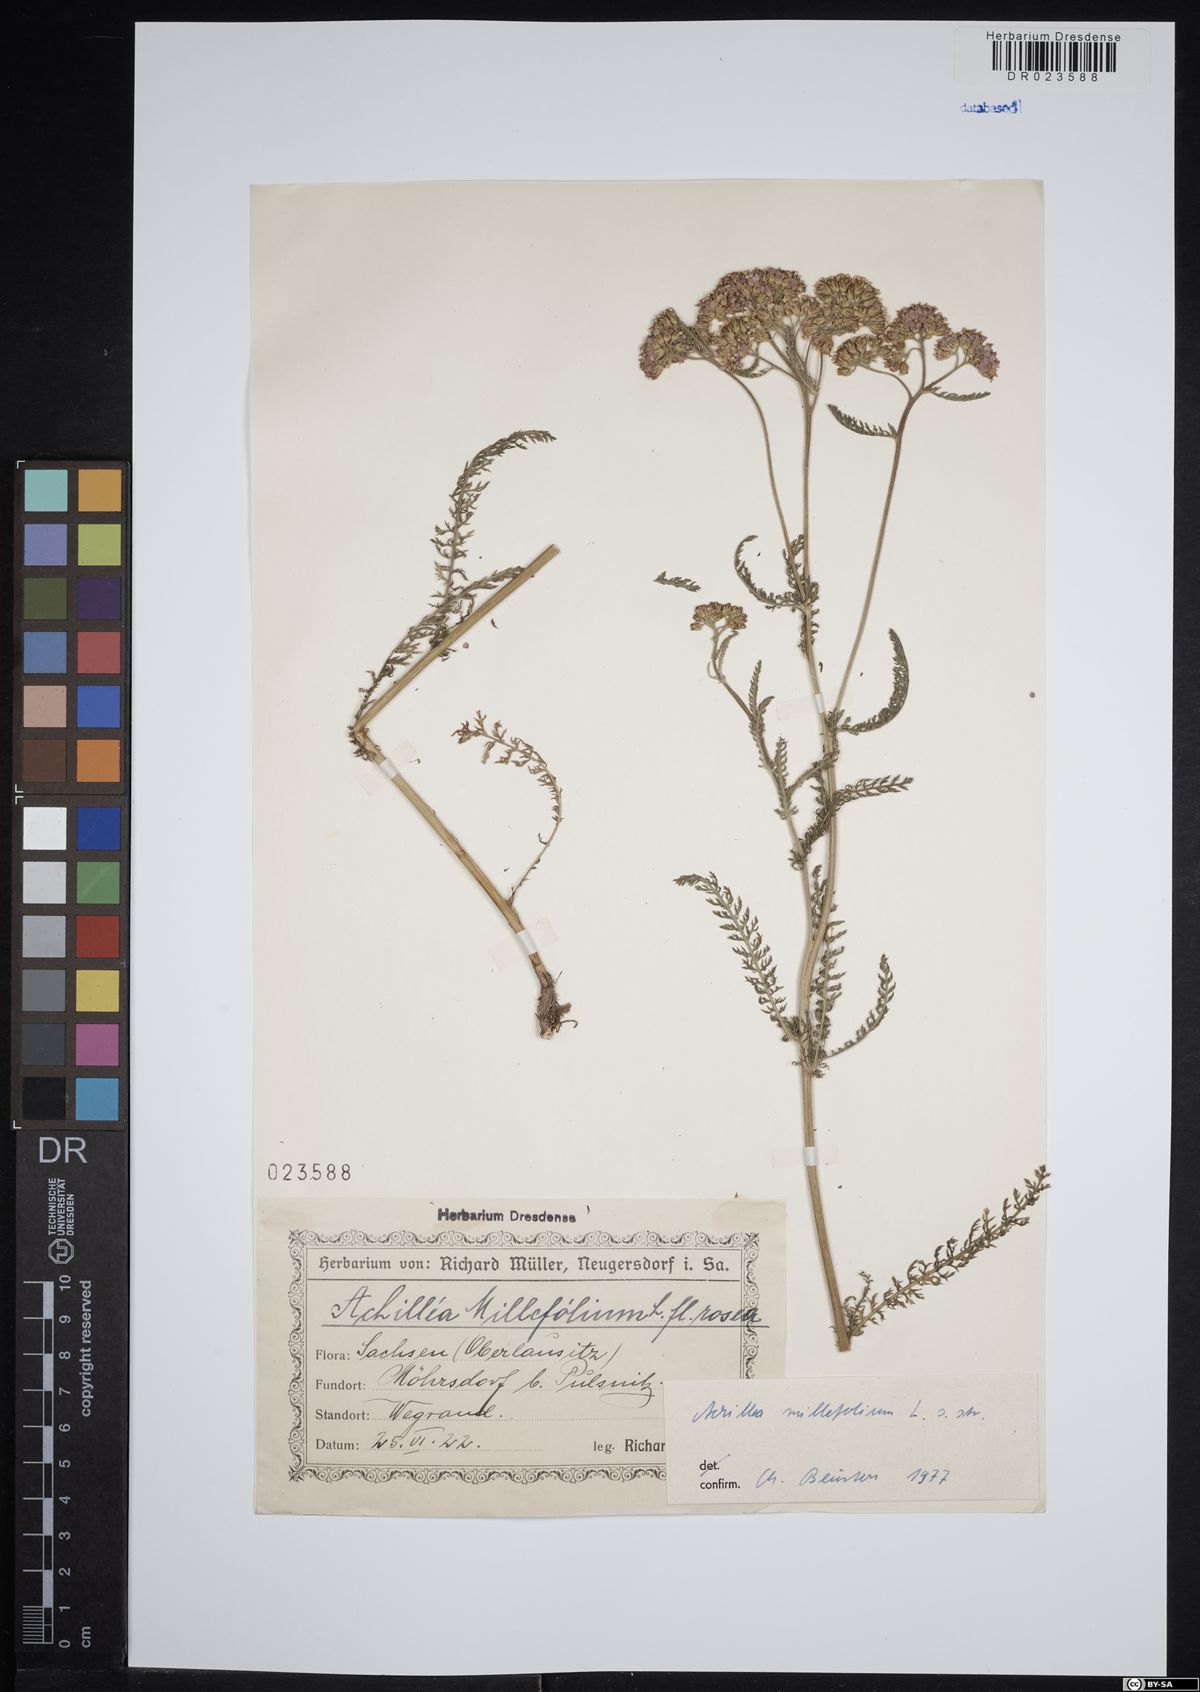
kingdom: Plantae
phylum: Tracheophyta
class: Magnoliopsida
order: Asterales
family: Asteraceae
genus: Achillea
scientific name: Achillea millefolium
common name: Yarrow
